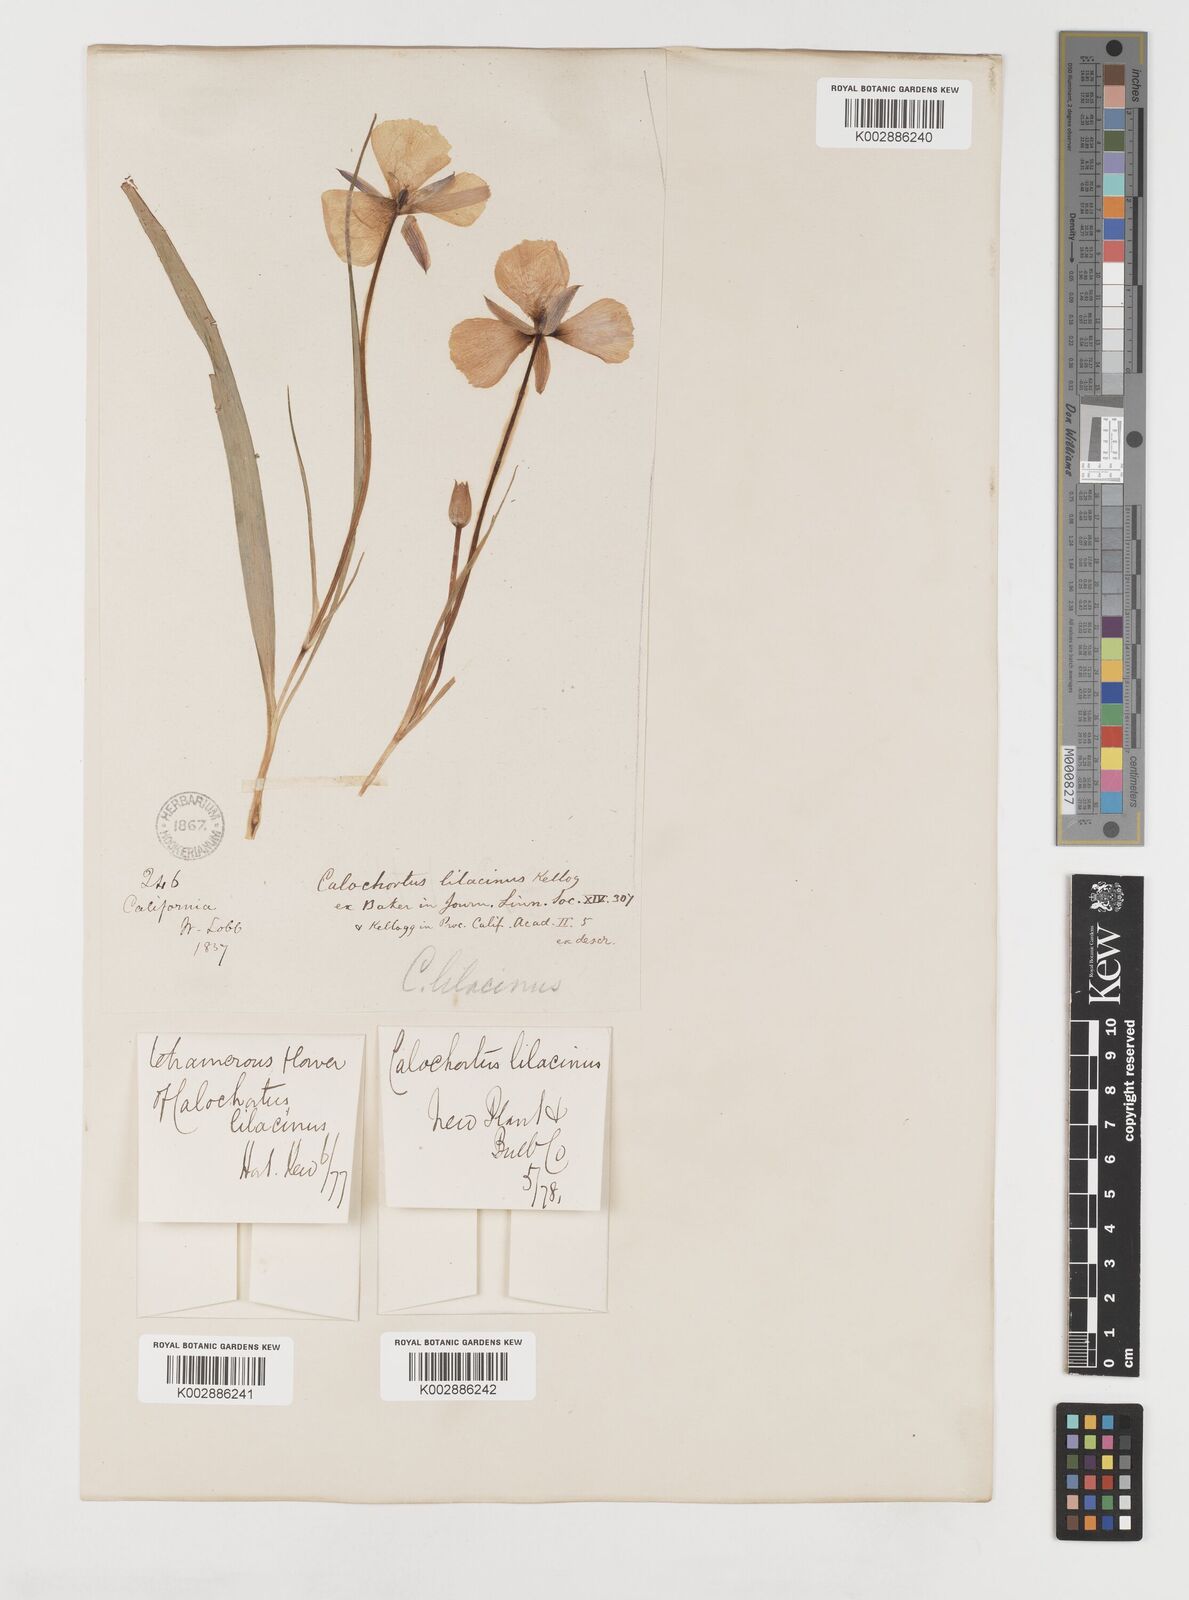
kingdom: Plantae
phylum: Tracheophyta
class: Liliopsida
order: Liliales
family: Liliaceae
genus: Calochortus
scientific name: Calochortus uniflorus
